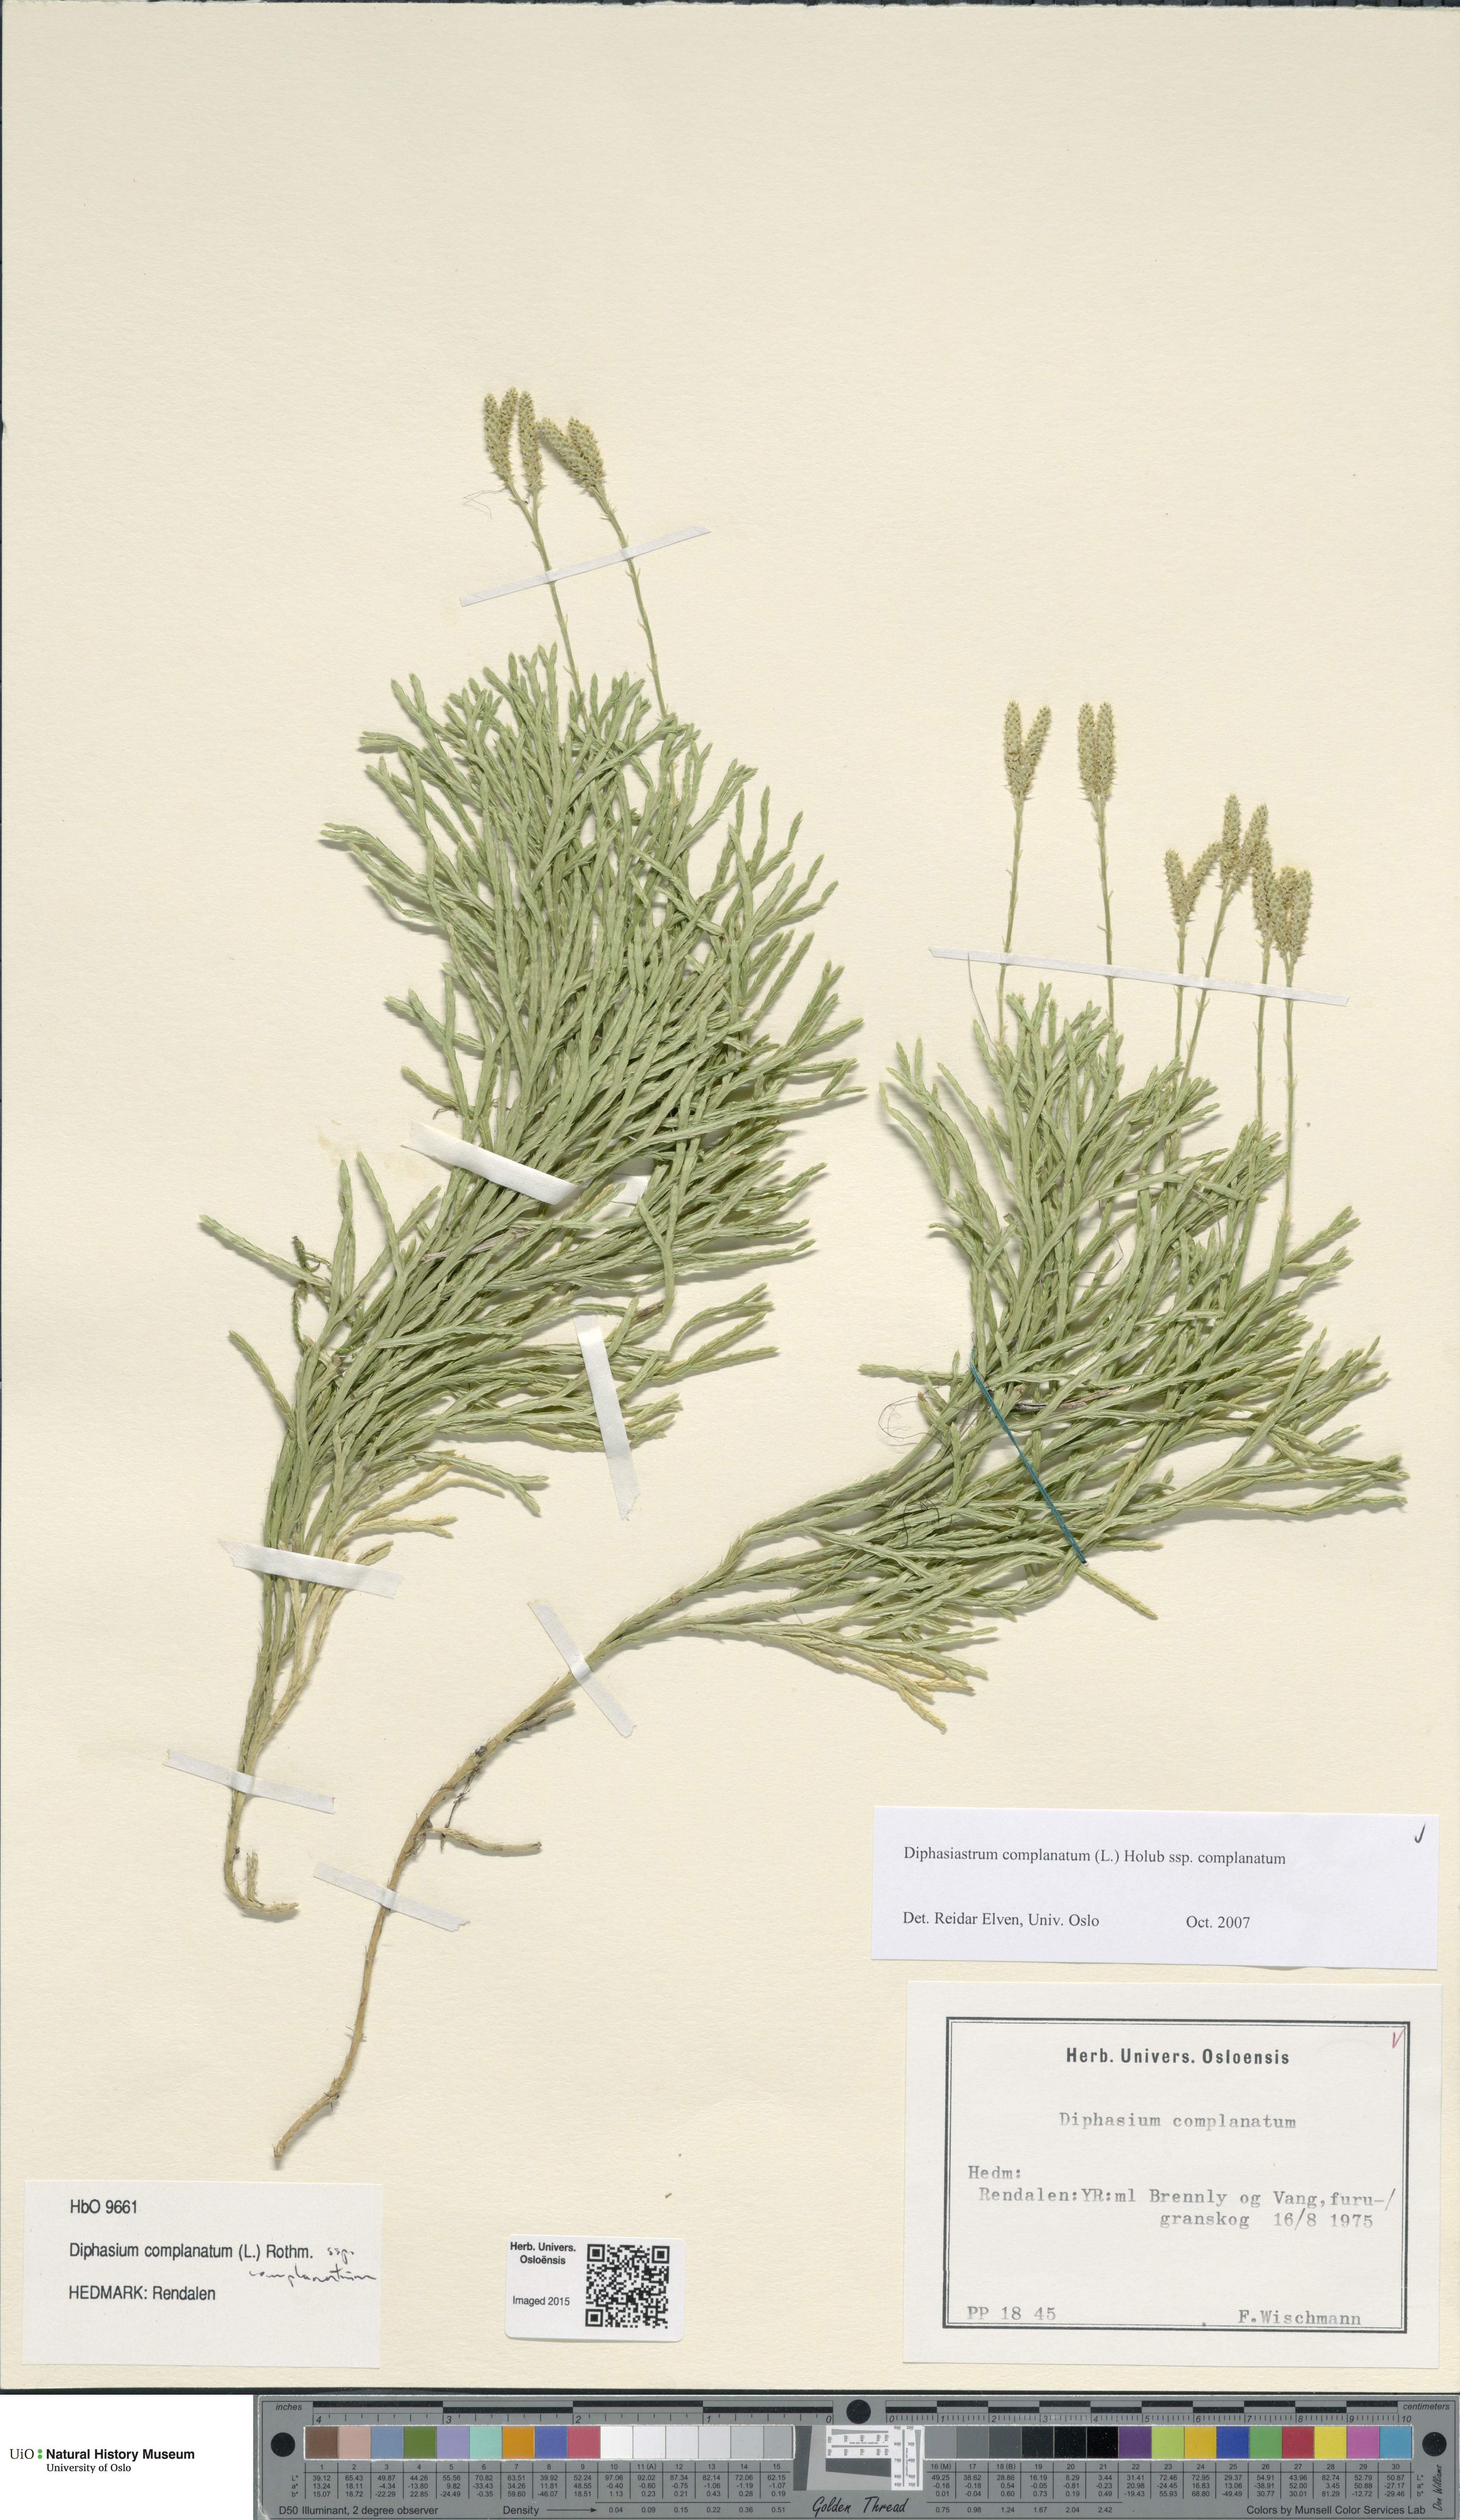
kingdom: Plantae
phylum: Tracheophyta
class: Lycopodiopsida
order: Lycopodiales
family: Lycopodiaceae
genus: Diphasiastrum
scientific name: Diphasiastrum complanatum
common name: Northern running-pine
